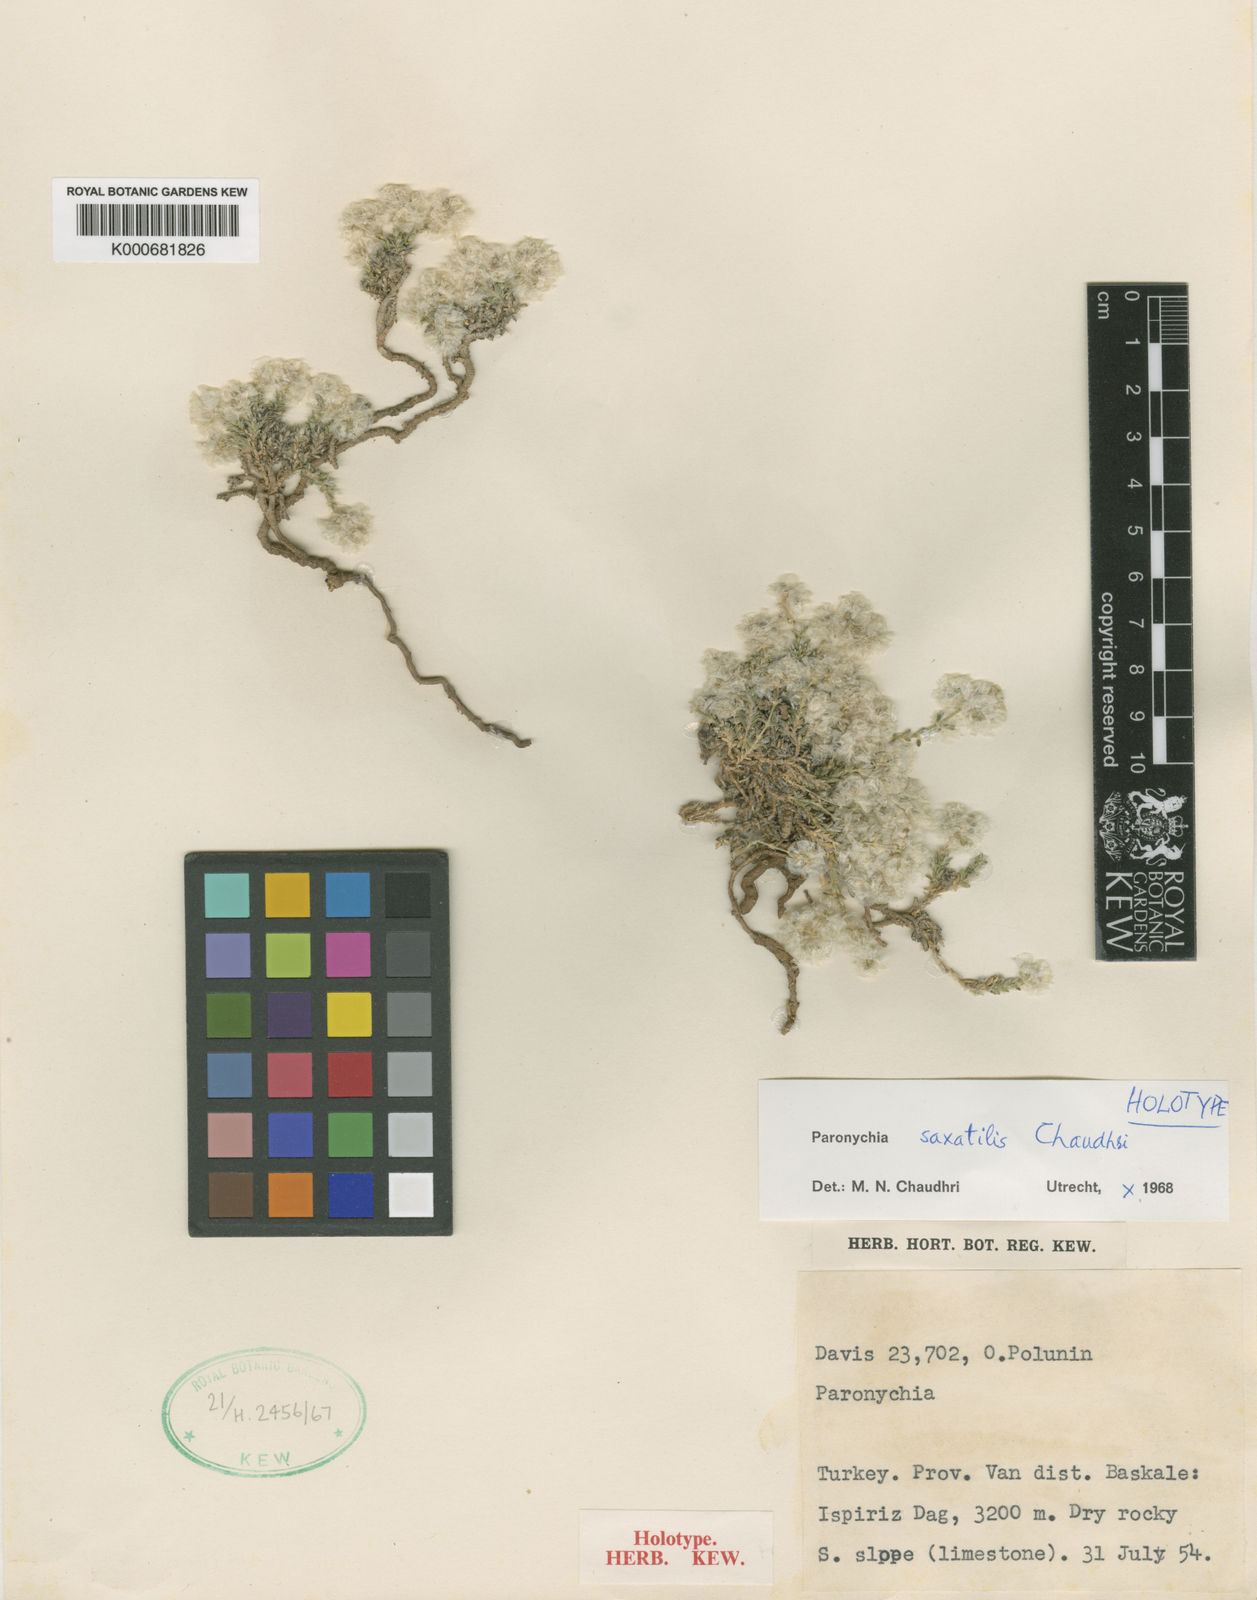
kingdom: Plantae
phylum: Tracheophyta
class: Magnoliopsida
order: Caryophyllales
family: Caryophyllaceae
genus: Paronychia
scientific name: Paronychia saxatilis
